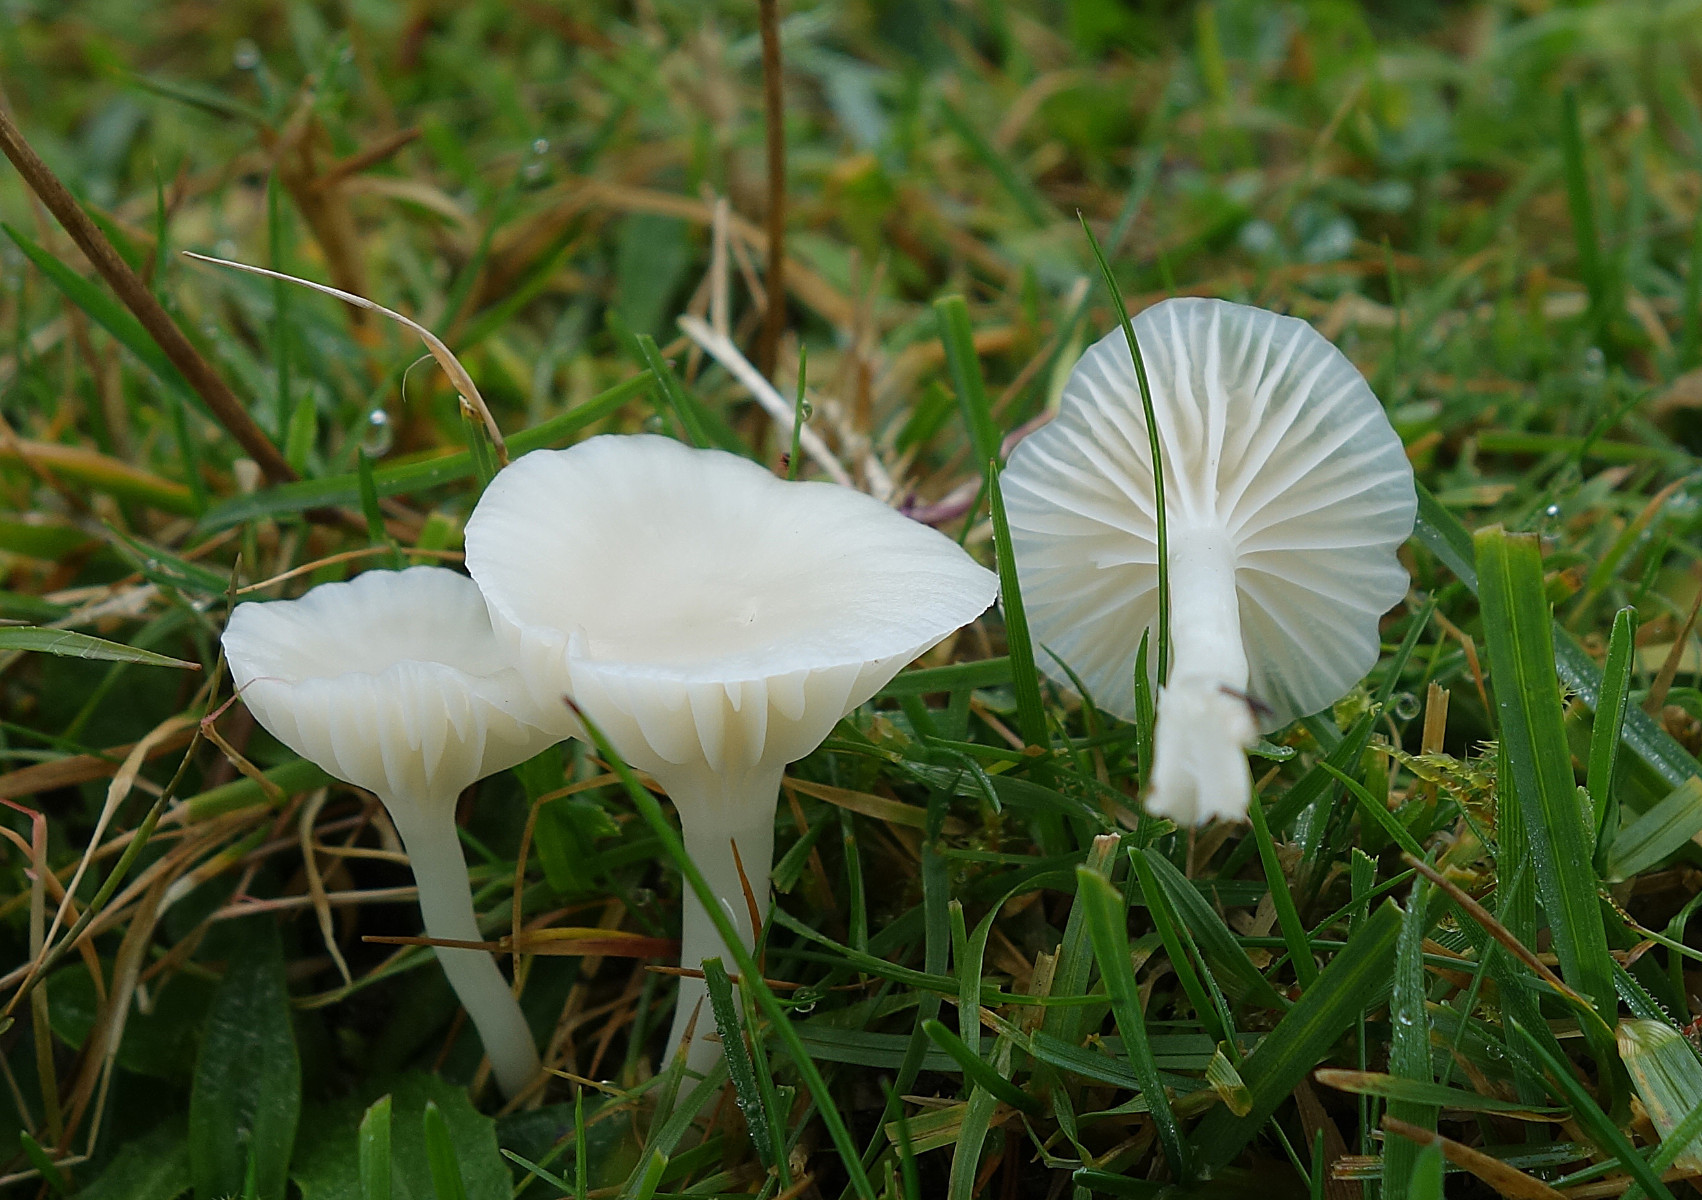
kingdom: Fungi
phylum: Basidiomycota
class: Agaricomycetes
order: Agaricales
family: Hygrophoraceae
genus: Cuphophyllus
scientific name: Cuphophyllus virgineus
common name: snehvid vokshat
